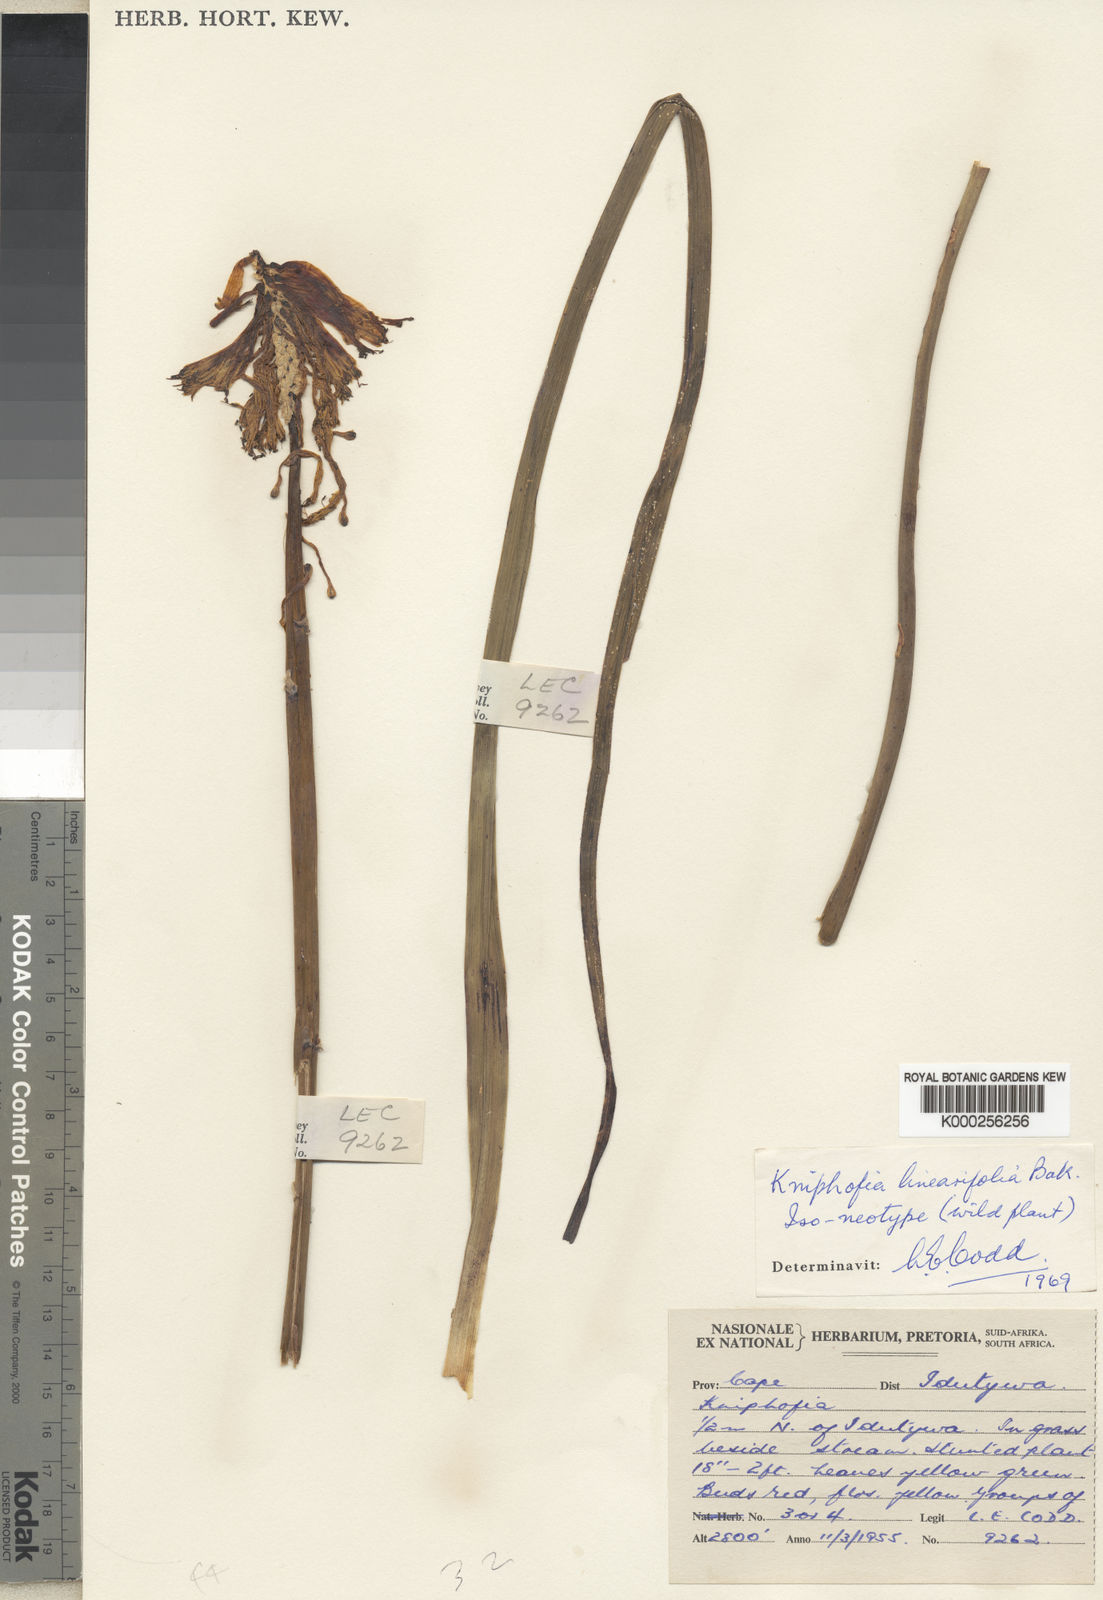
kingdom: Plantae
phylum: Tracheophyta
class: Liliopsida
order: Asparagales
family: Asphodelaceae
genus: Kniphofia
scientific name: Kniphofia linearifolia
